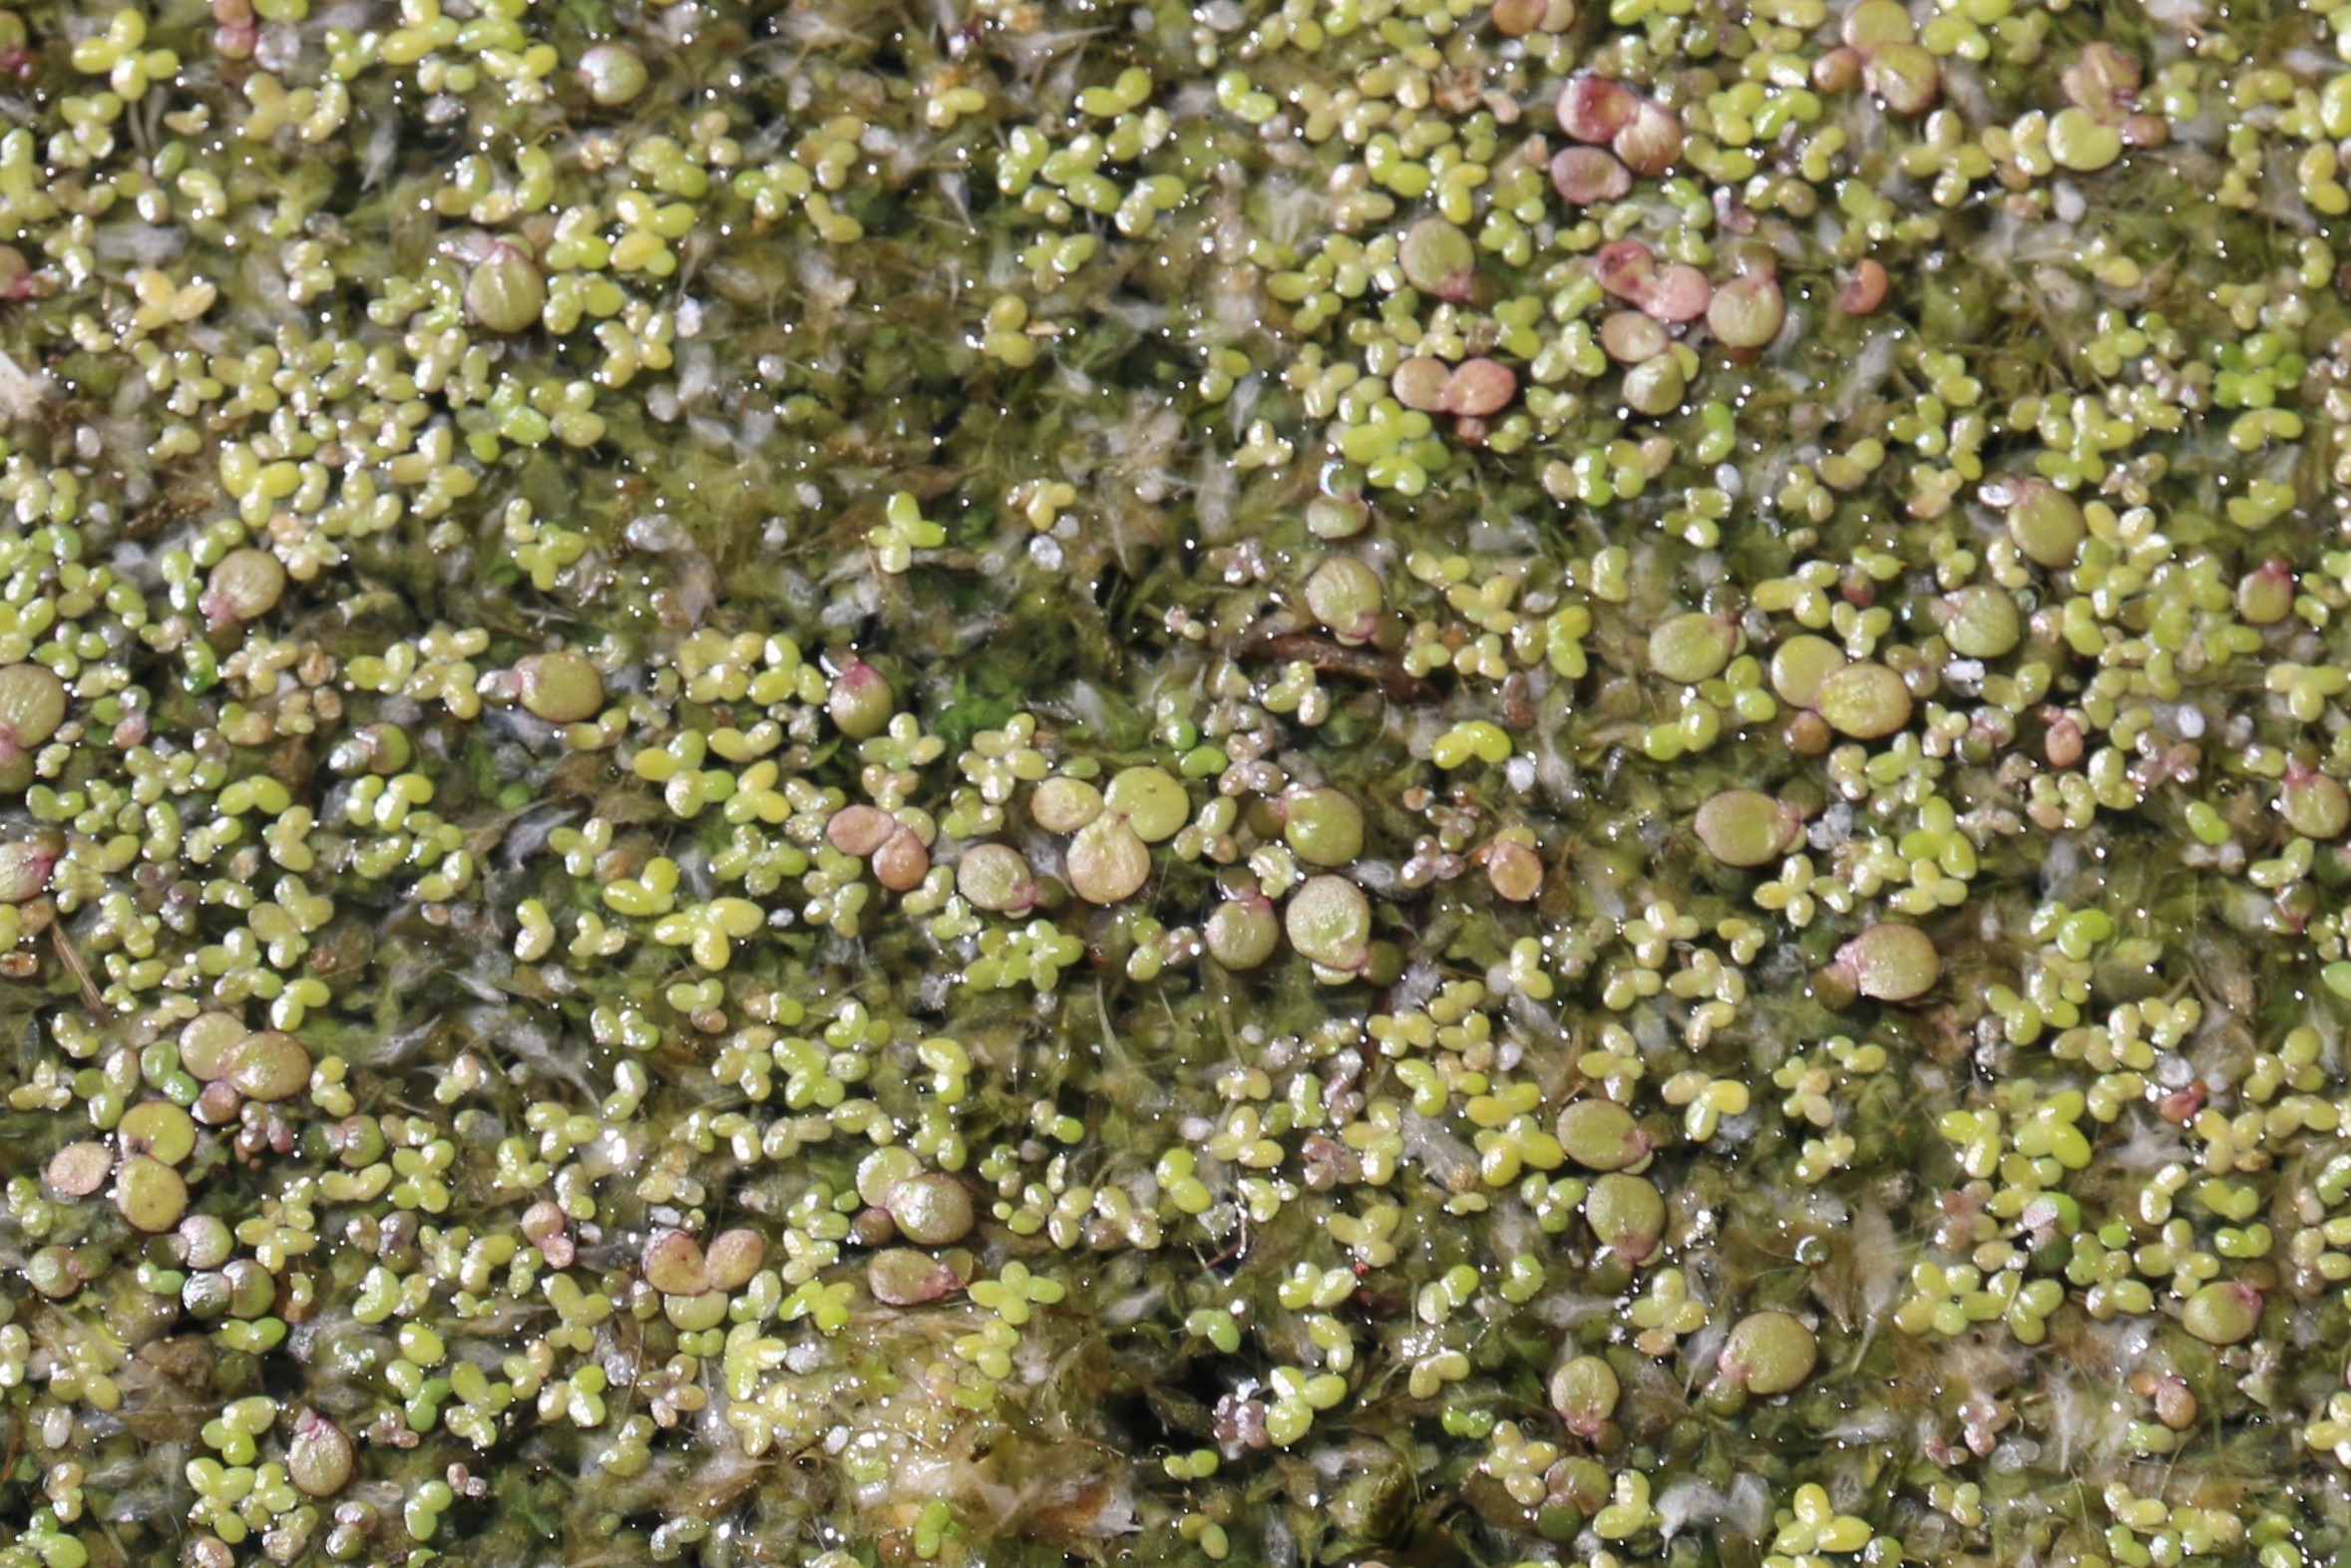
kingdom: Plantae
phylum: Tracheophyta
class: Liliopsida
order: Alismatales
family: Araceae
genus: Spirodela
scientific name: Spirodela polyrhiza
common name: Stor andemad
